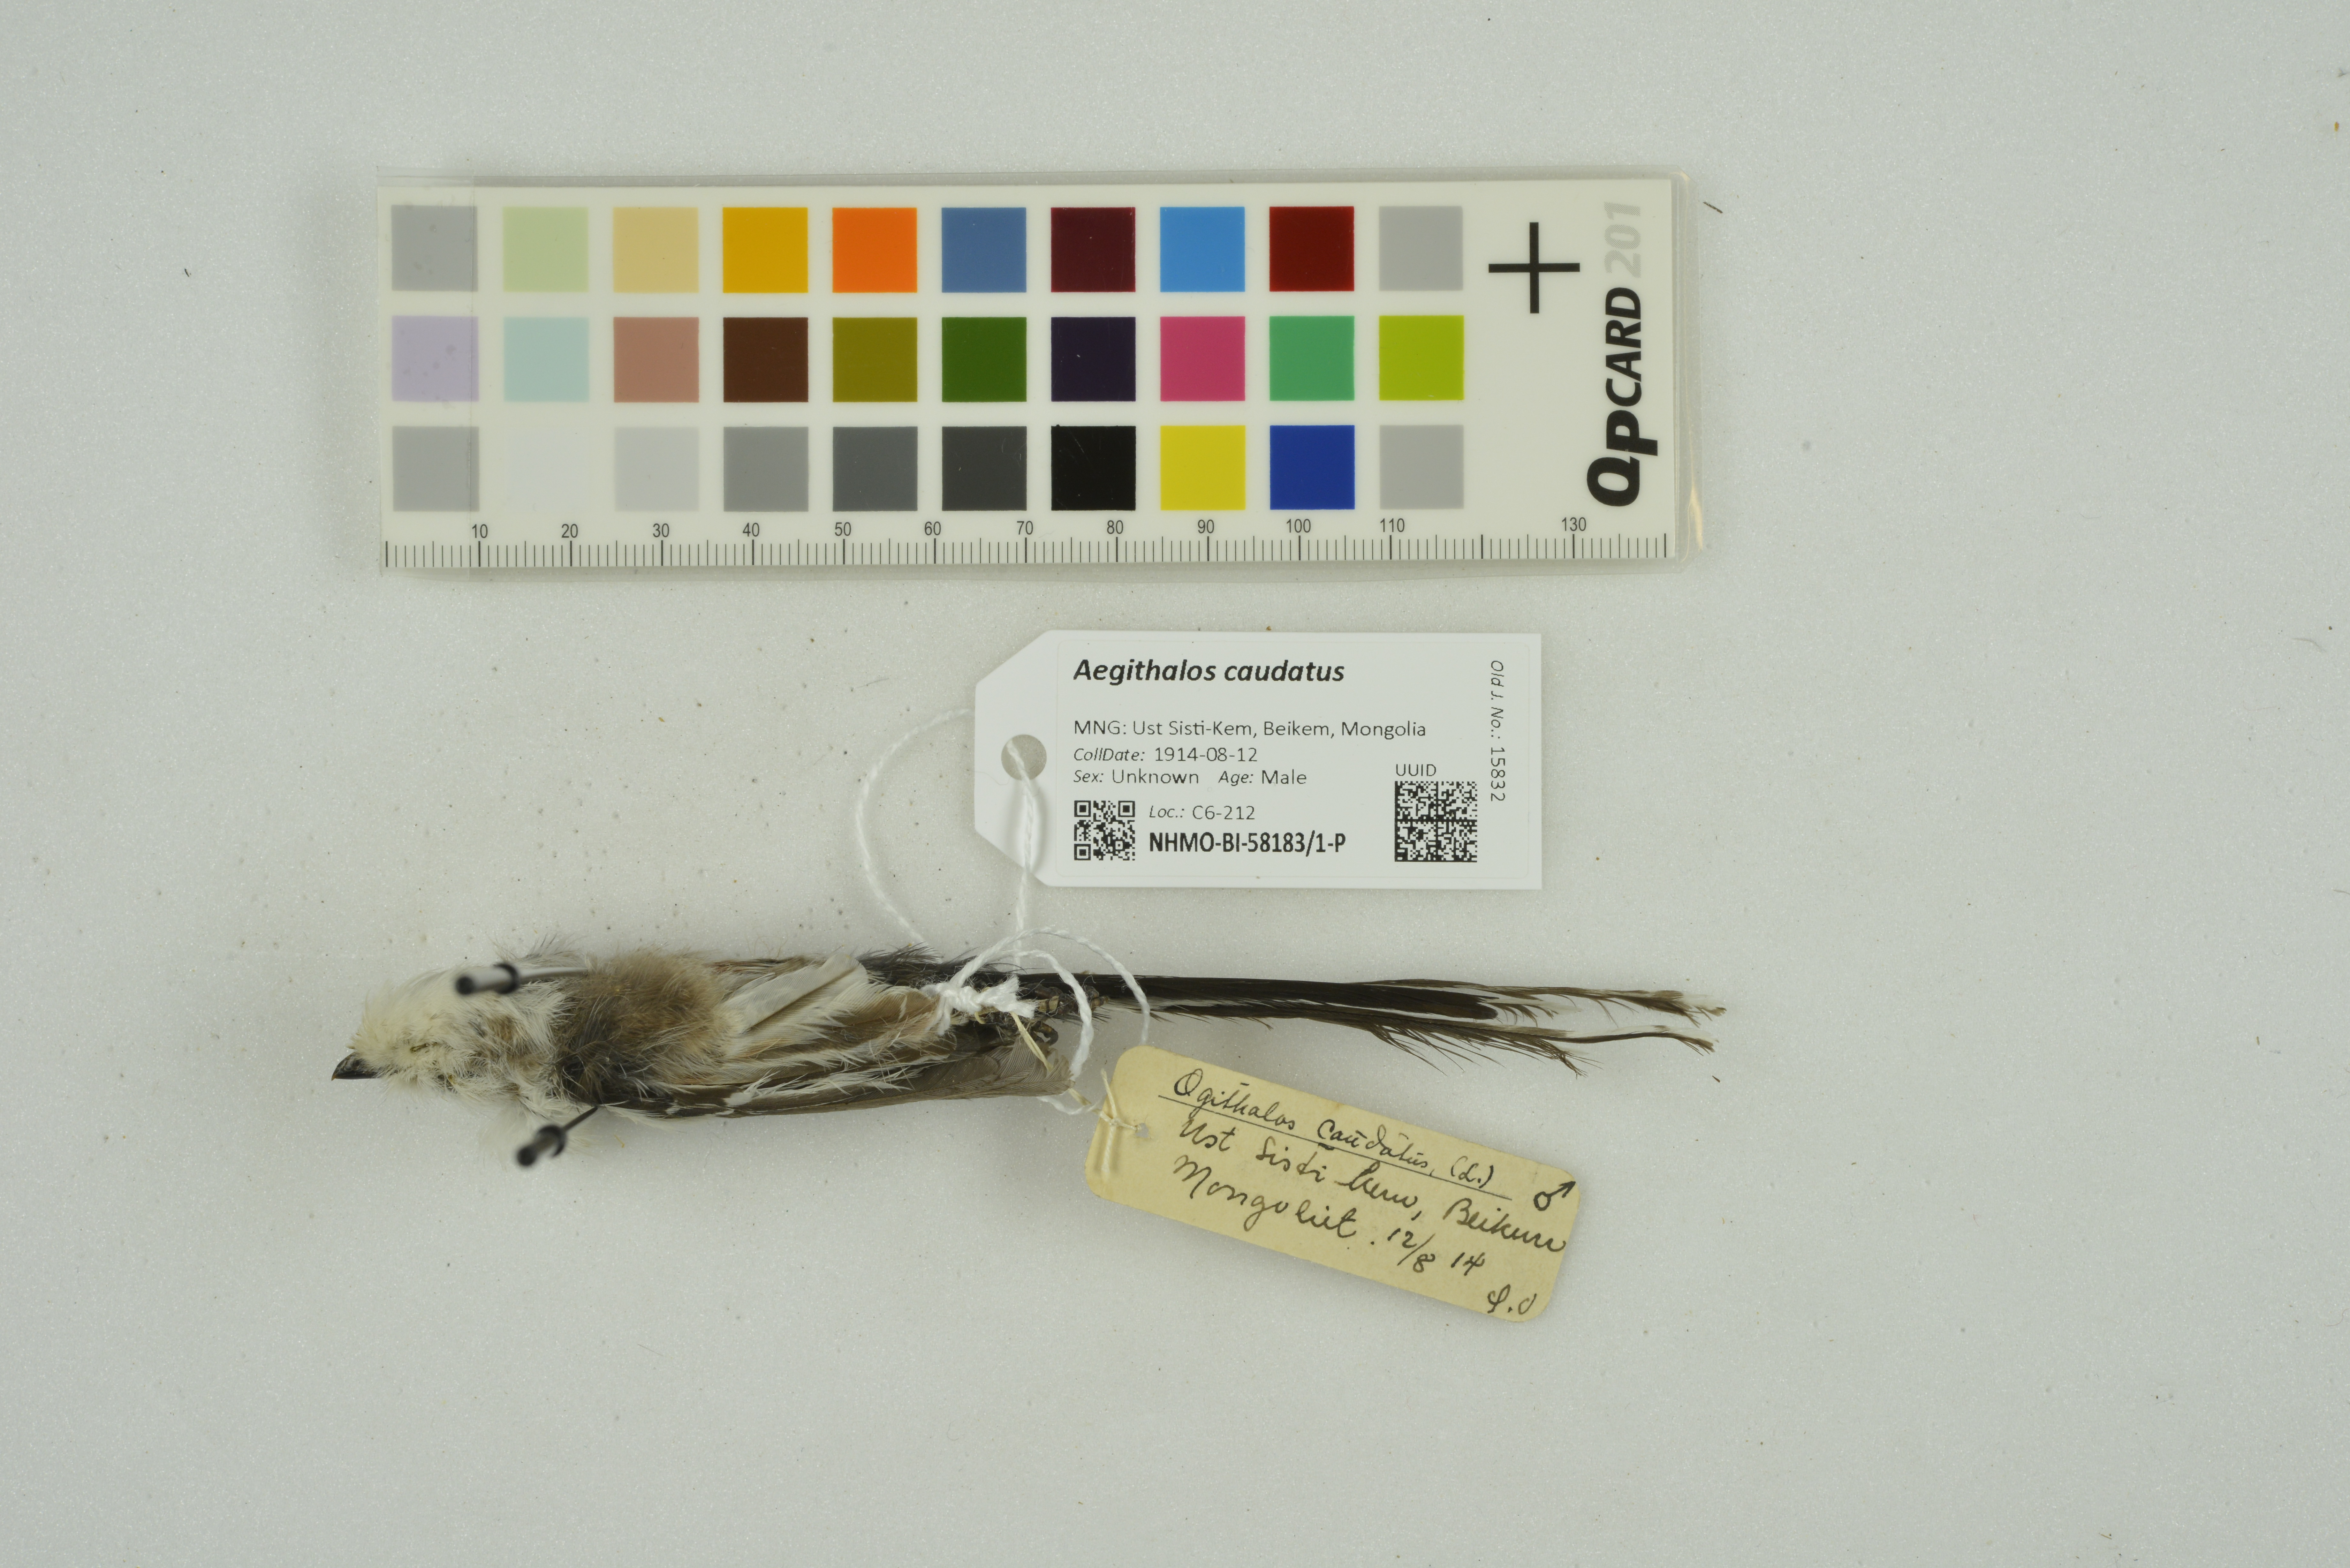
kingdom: Animalia
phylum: Chordata
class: Aves
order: Passeriformes
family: Aegithalidae
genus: Aegithalos
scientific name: Aegithalos caudatus
